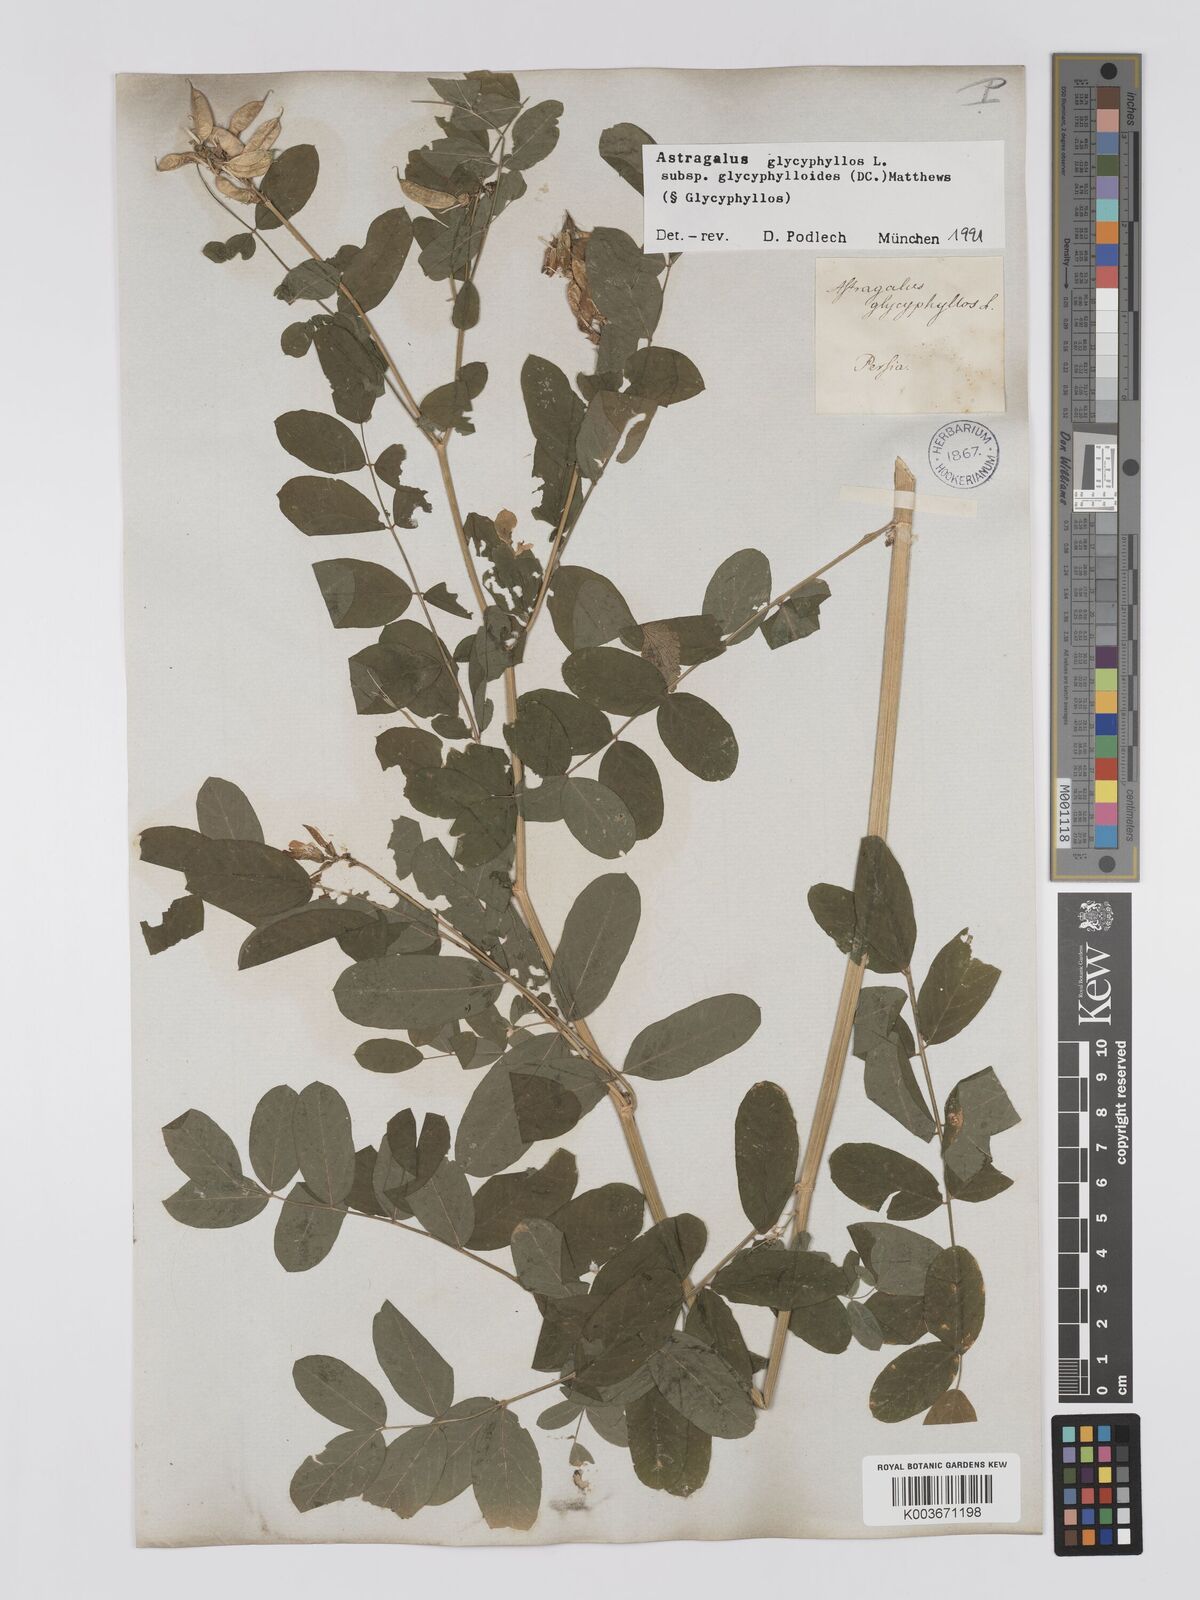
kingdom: Plantae
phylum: Tracheophyta
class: Magnoliopsida
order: Fabales
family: Fabaceae
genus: Astragalus
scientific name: Astragalus glycyphyllos
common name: Wild liquorice
